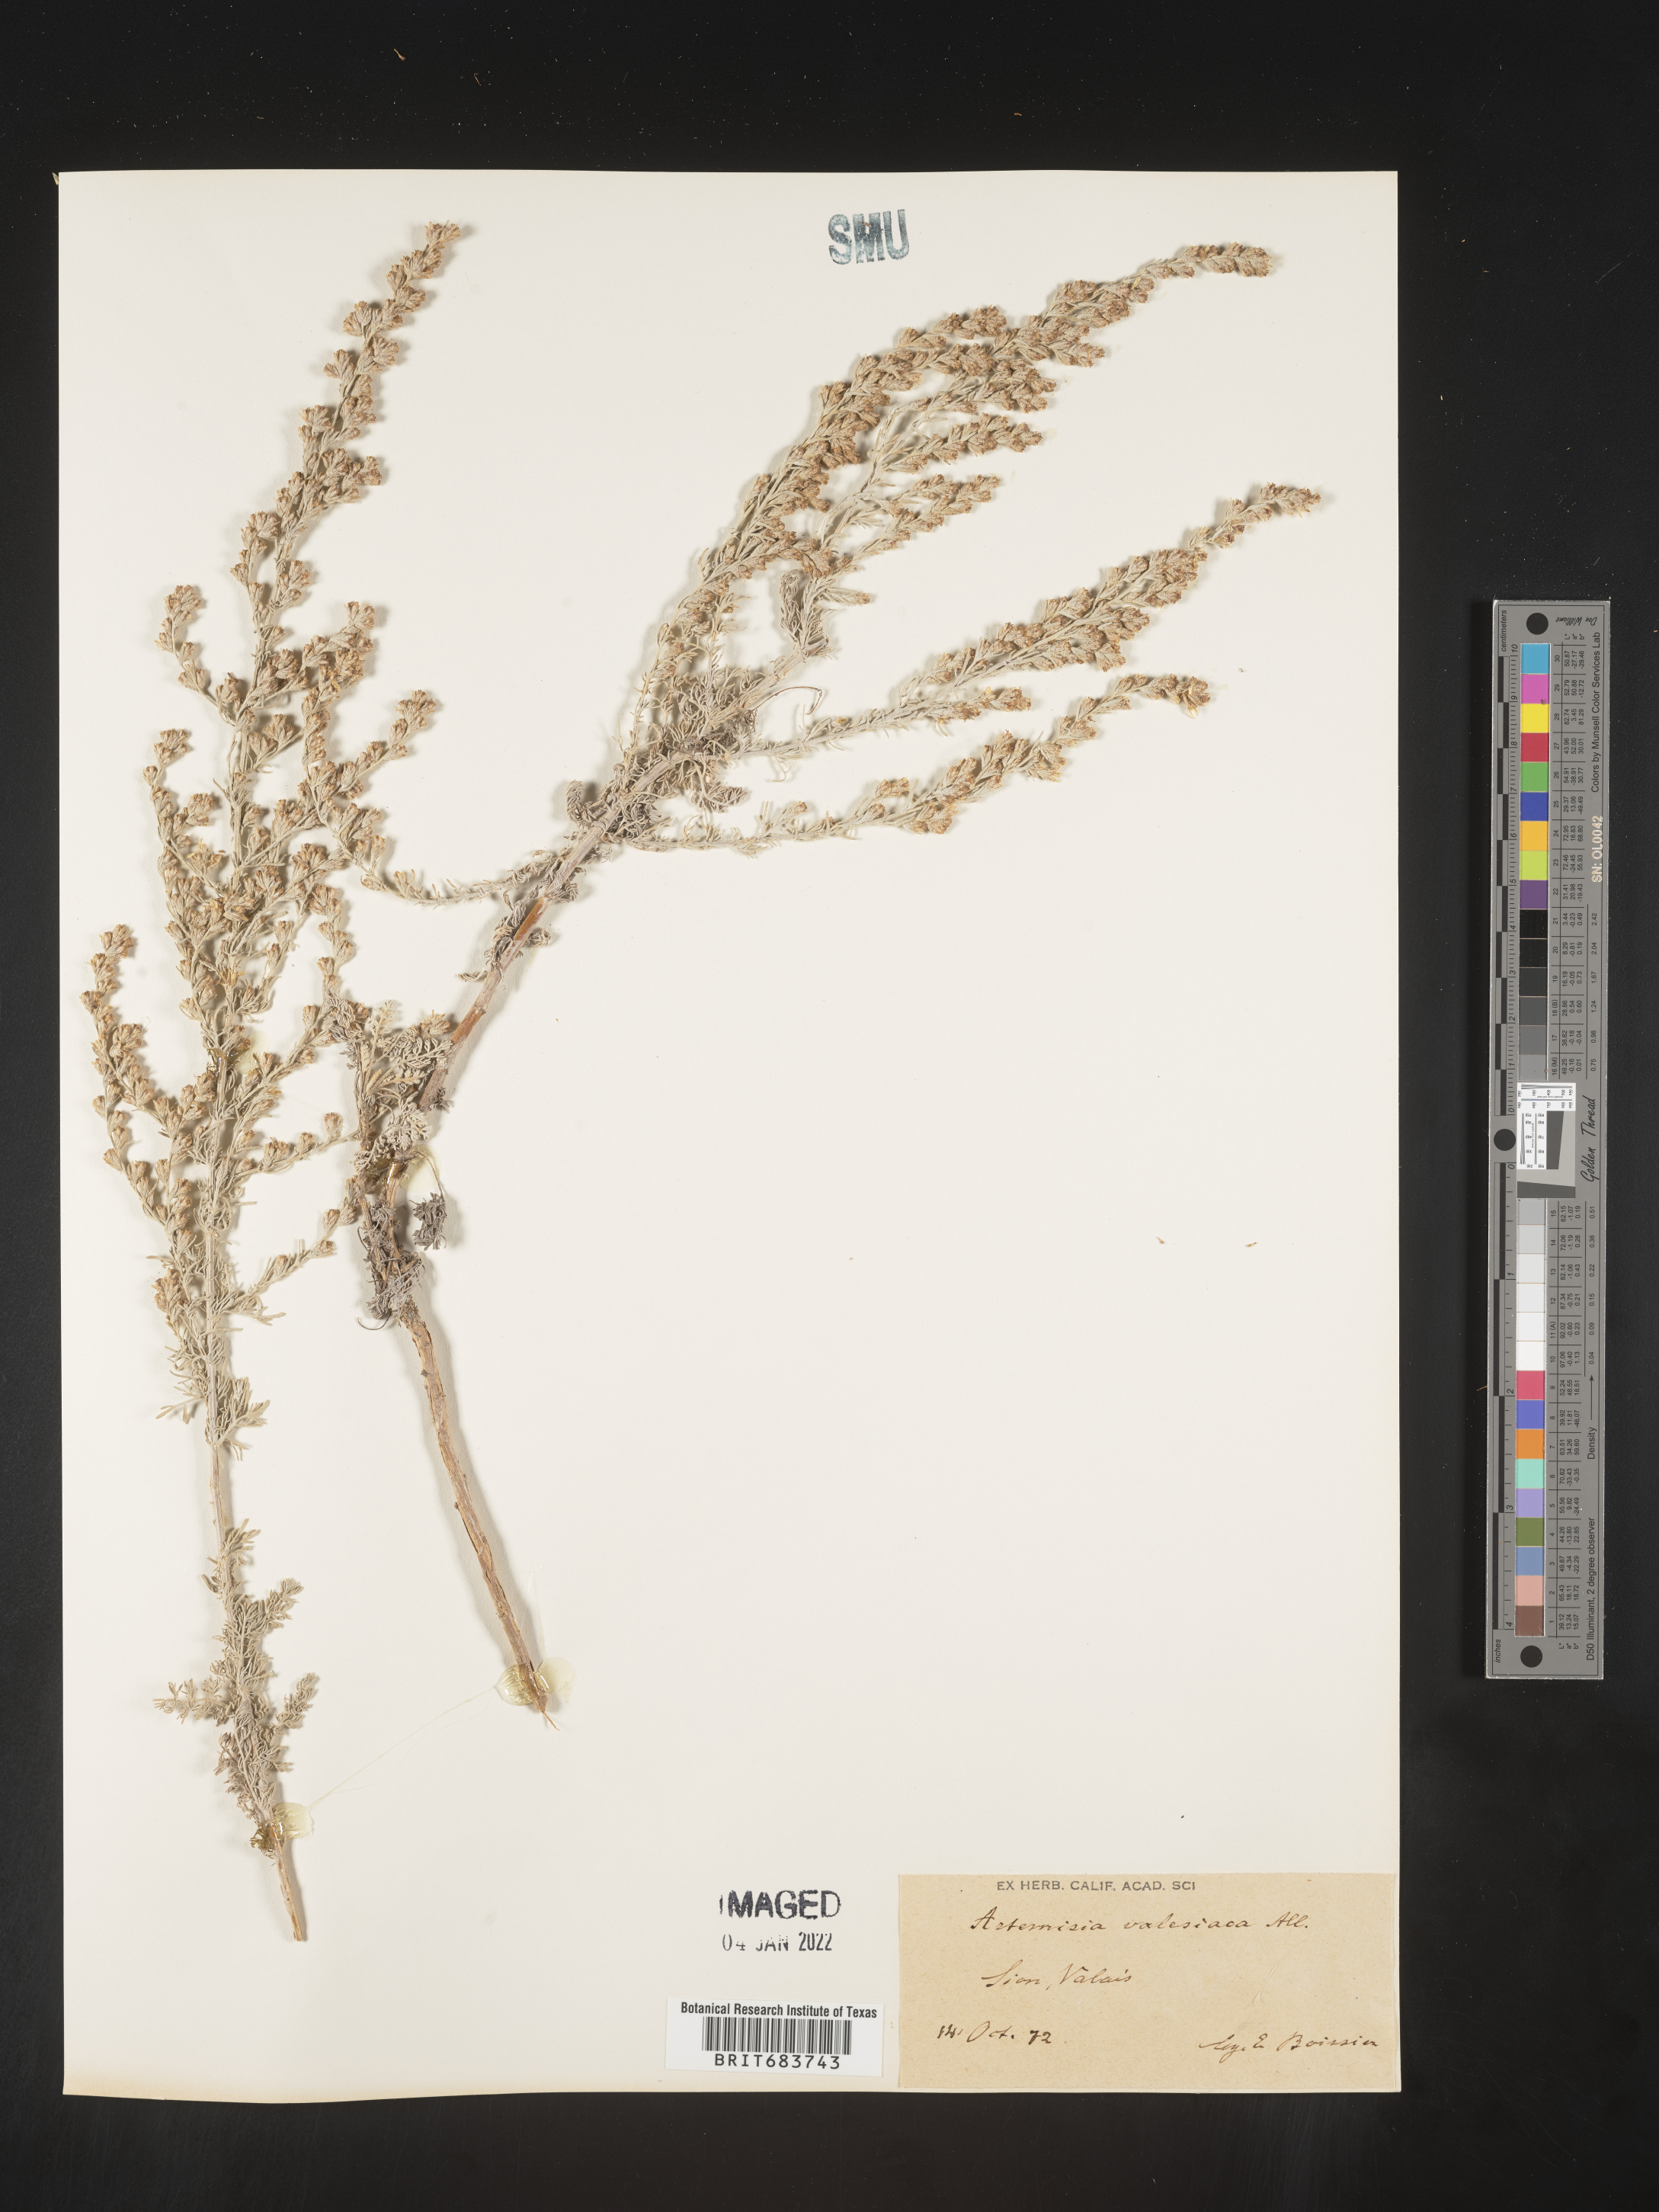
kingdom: Plantae
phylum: Tracheophyta
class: Magnoliopsida
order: Asterales
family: Asteraceae
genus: Artemisia
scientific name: Artemisia
